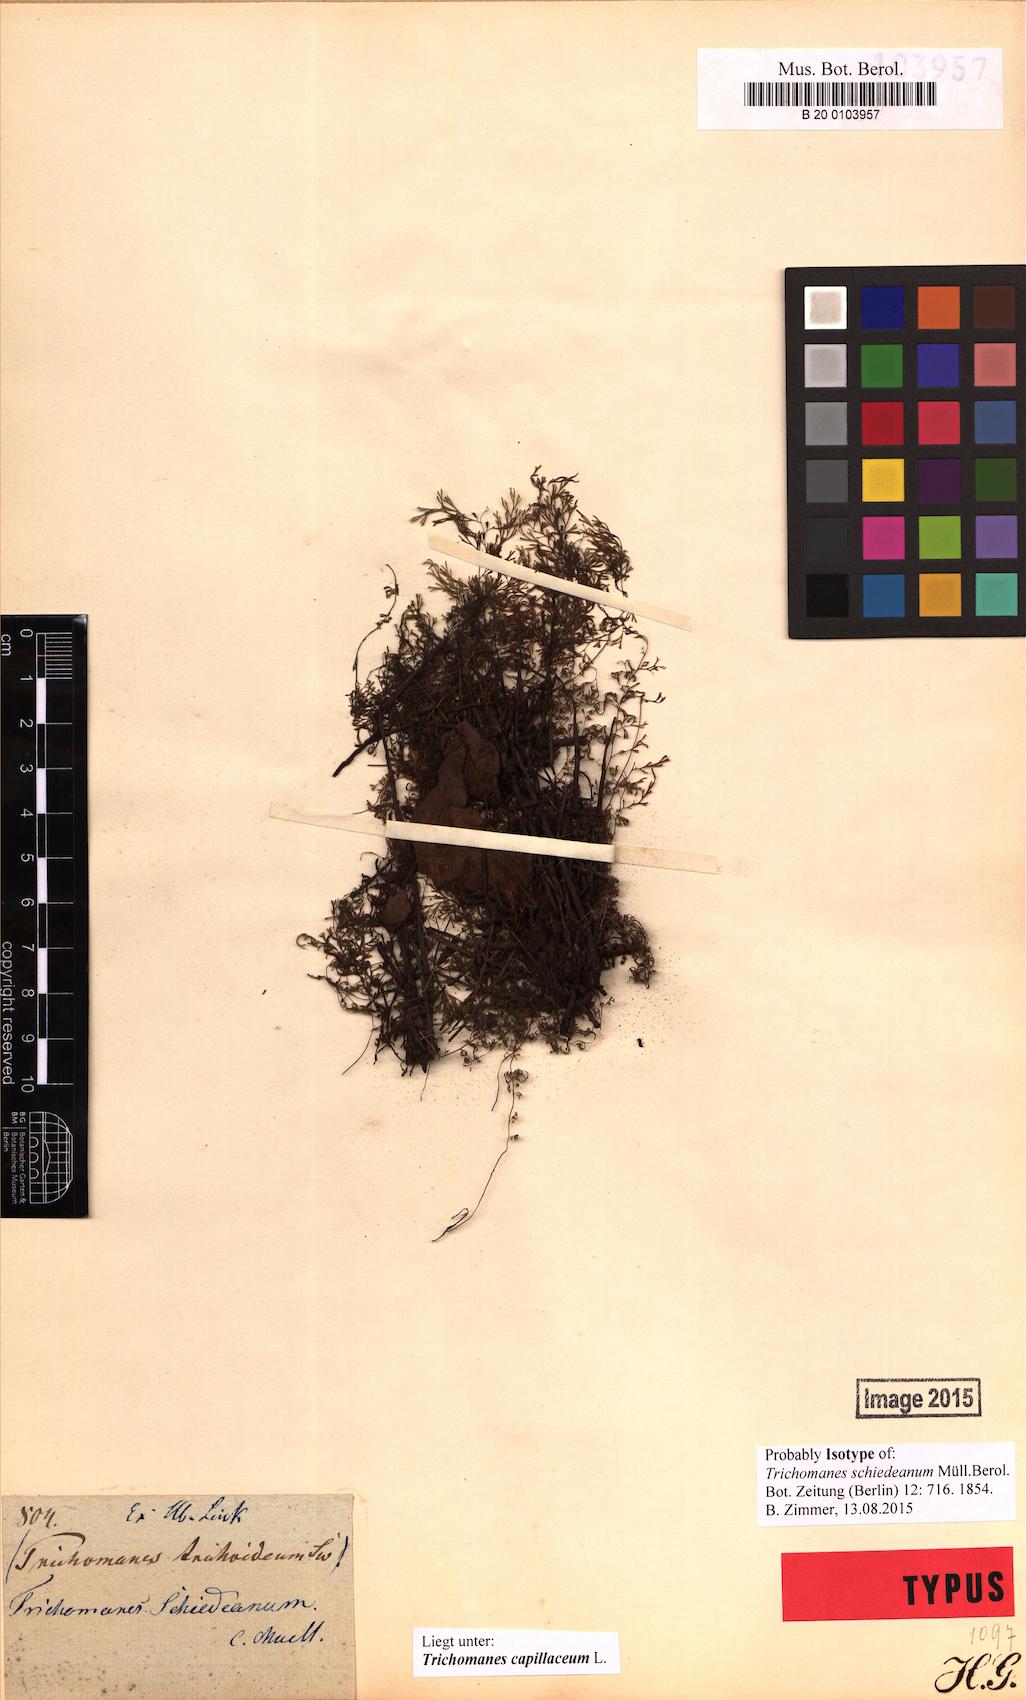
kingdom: Plantae
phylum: Tracheophyta
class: Polypodiopsida
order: Hymenophyllales
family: Hymenophyllaceae
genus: Polyphlebium
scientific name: Polyphlebium capillaceum
